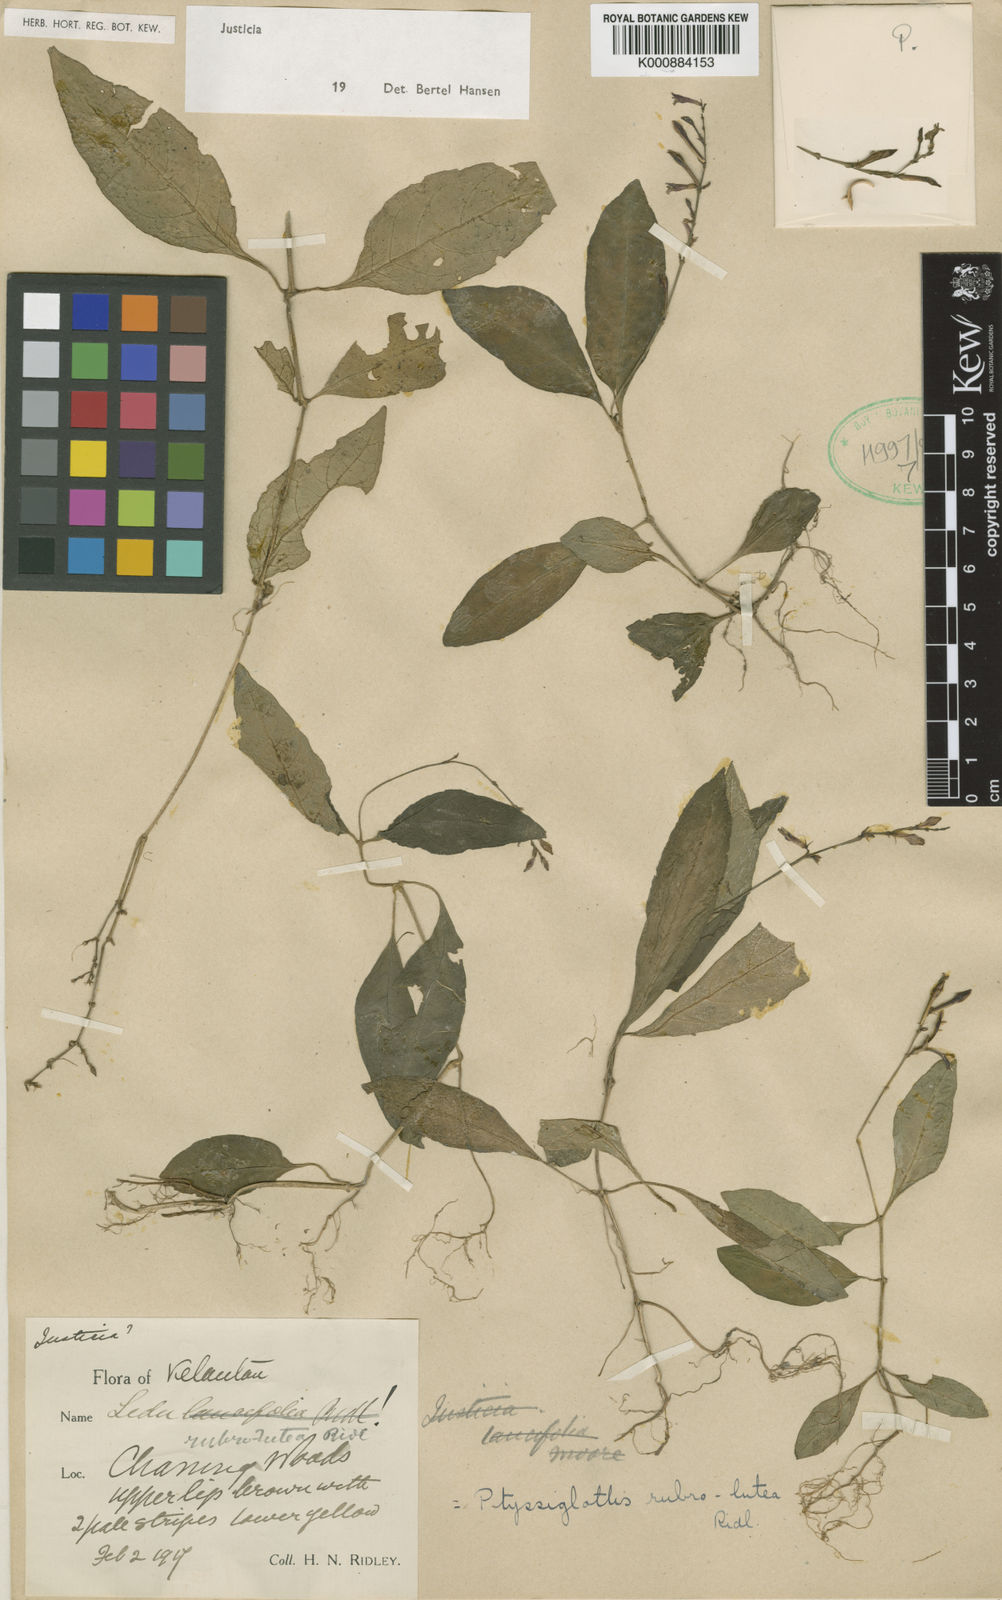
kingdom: Plantae
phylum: Tracheophyta
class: Magnoliopsida
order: Lamiales
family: Acanthaceae
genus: Justicia
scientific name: Justicia
